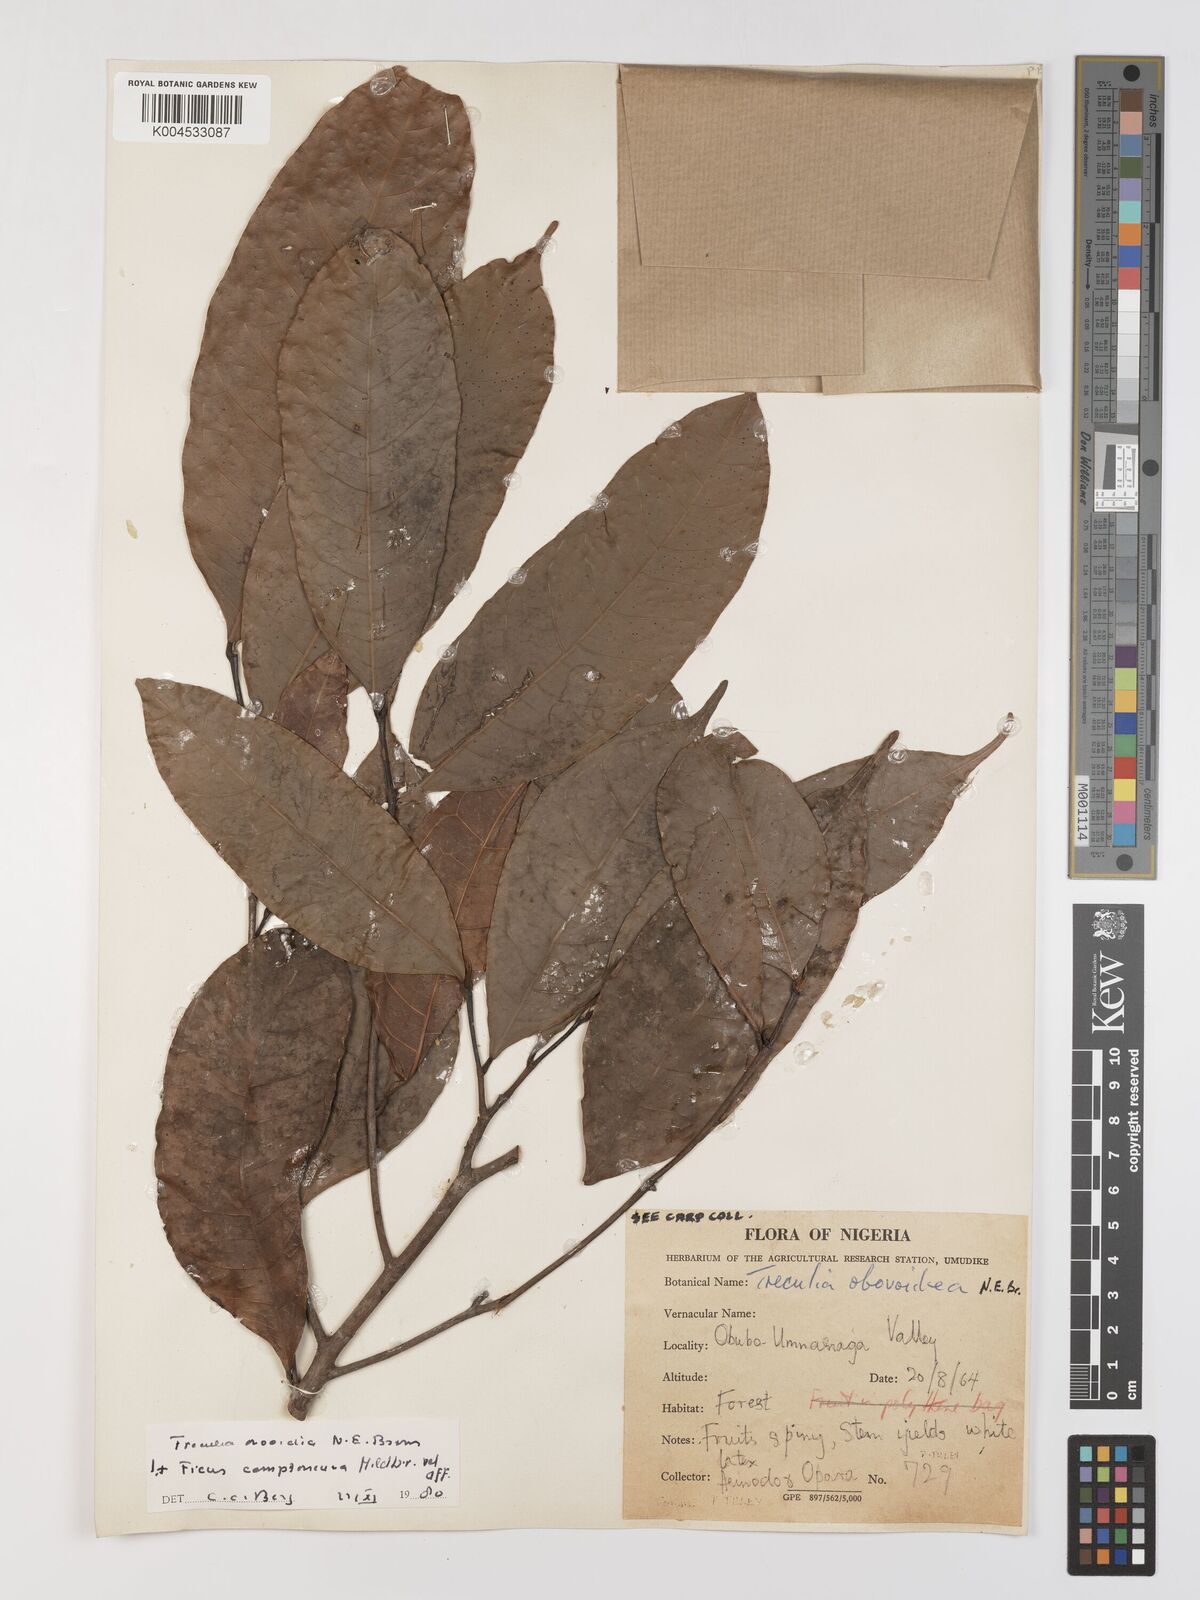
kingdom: Plantae
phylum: Tracheophyta
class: Magnoliopsida
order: Rosales
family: Moraceae
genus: Treculia
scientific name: Treculia obovoidea
